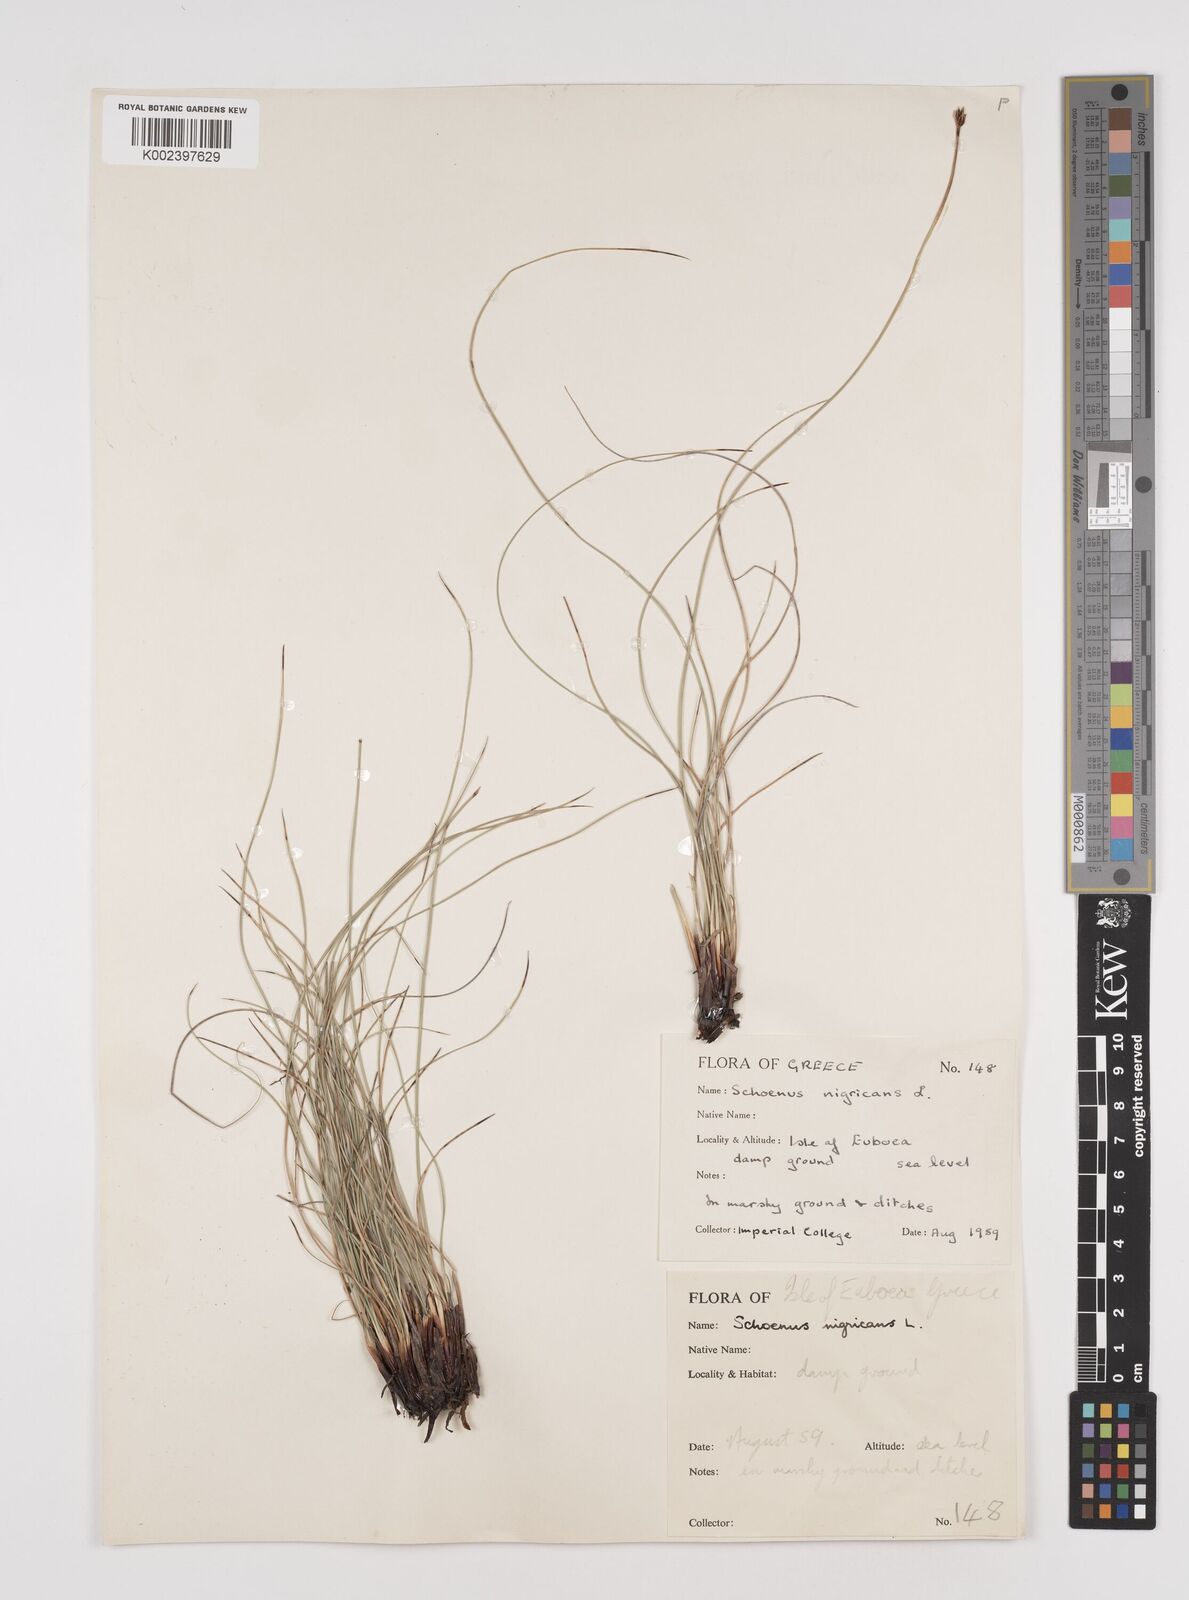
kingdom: Plantae
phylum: Tracheophyta
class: Liliopsida
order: Poales
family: Cyperaceae
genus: Schoenus
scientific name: Schoenus nigricans
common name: Black bog-rush
